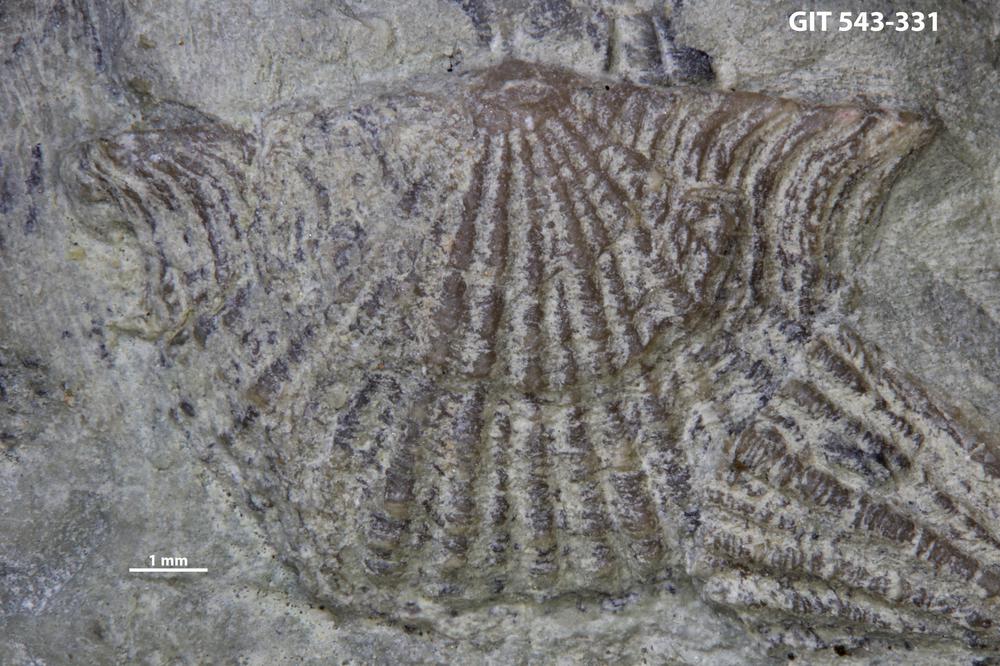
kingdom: Animalia
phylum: Brachiopoda
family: Kullervoidae
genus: Kullervo
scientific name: Kullervo
